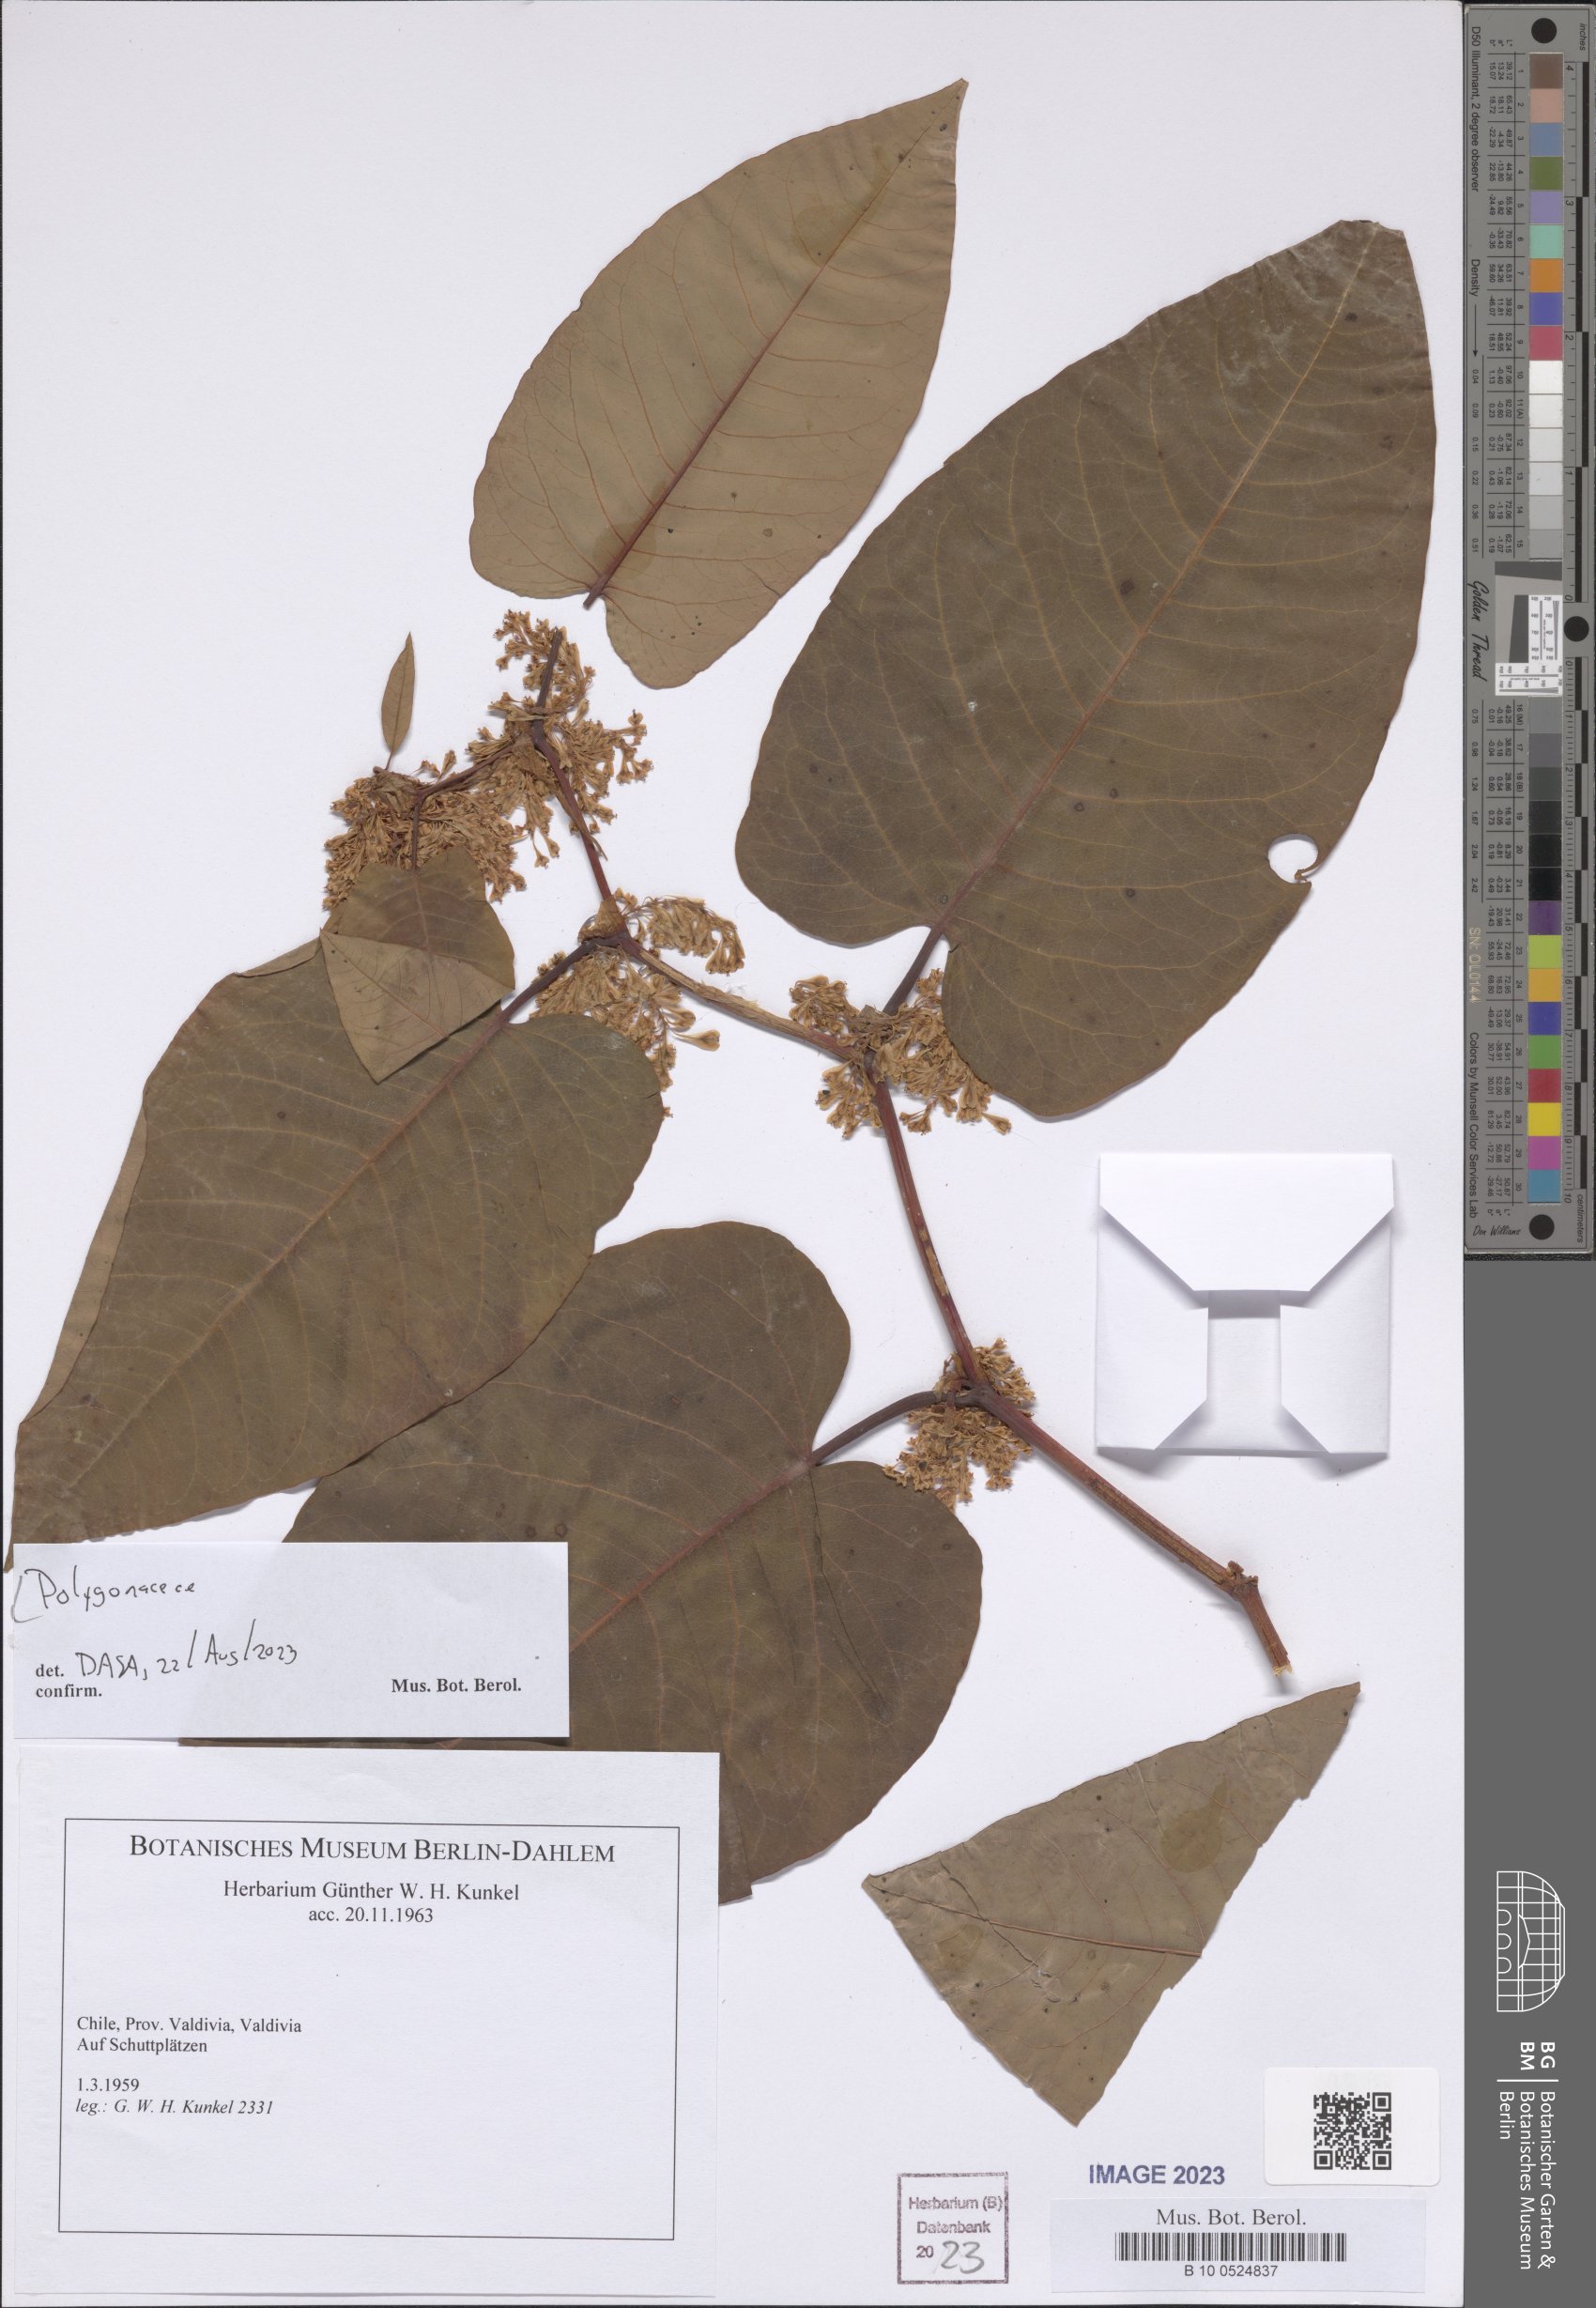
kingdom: Plantae
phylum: Tracheophyta
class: Magnoliopsida
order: Caryophyllales
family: Polygonaceae
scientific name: Polygonaceae
